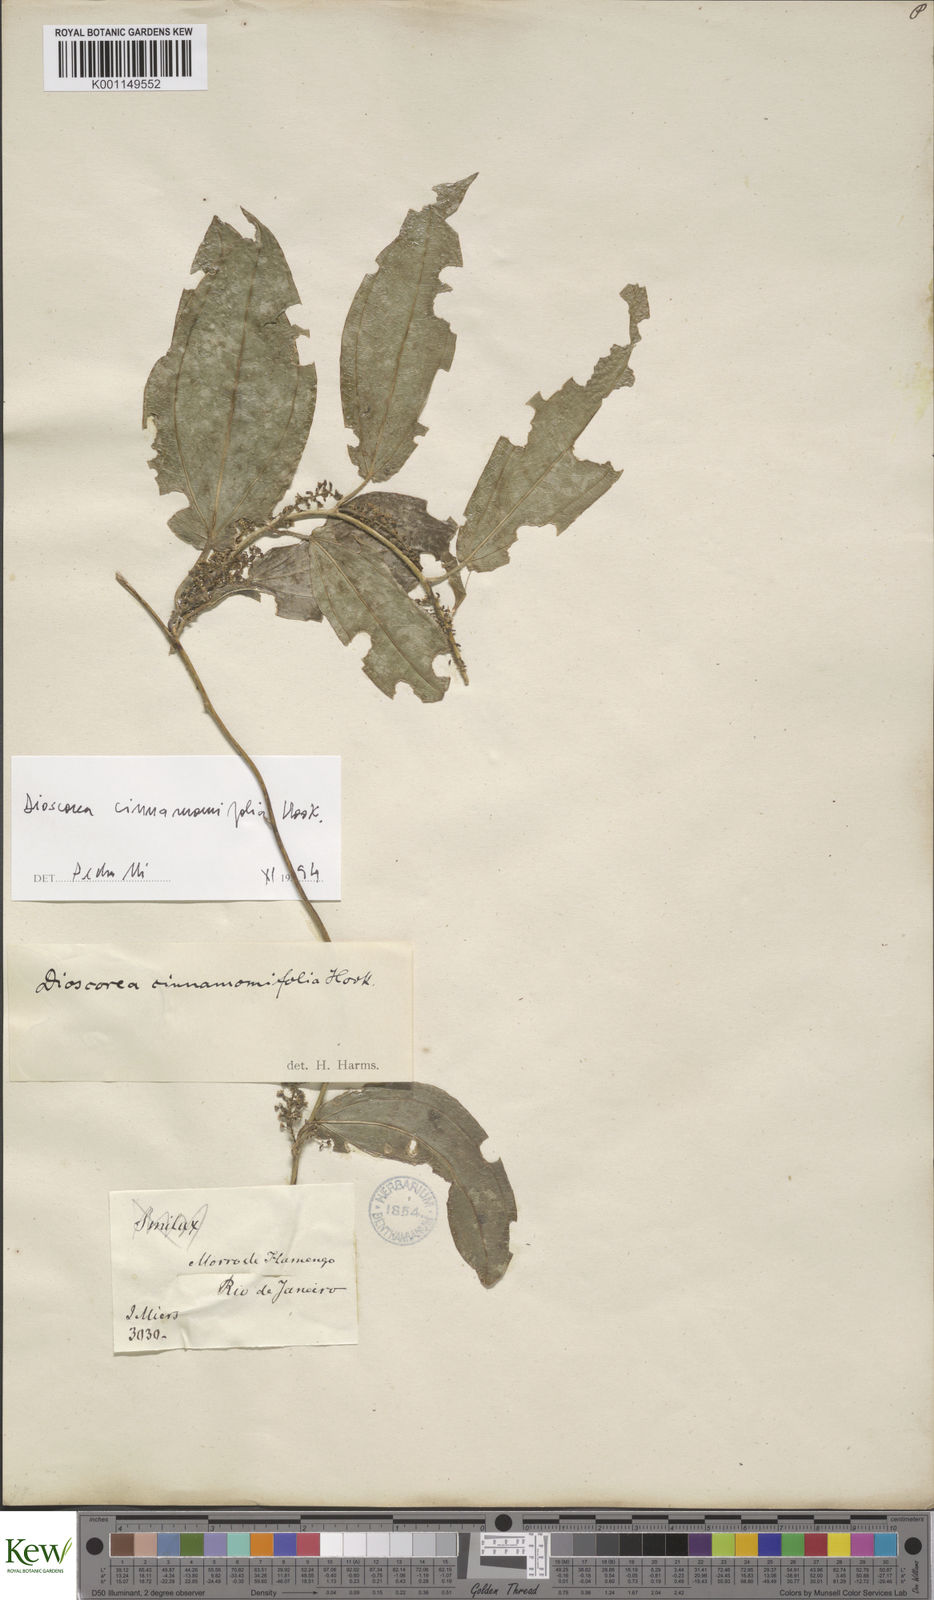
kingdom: Plantae
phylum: Tracheophyta
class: Liliopsida
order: Dioscoreales
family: Dioscoreaceae
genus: Dioscorea
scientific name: Dioscorea cinnamomifolia
